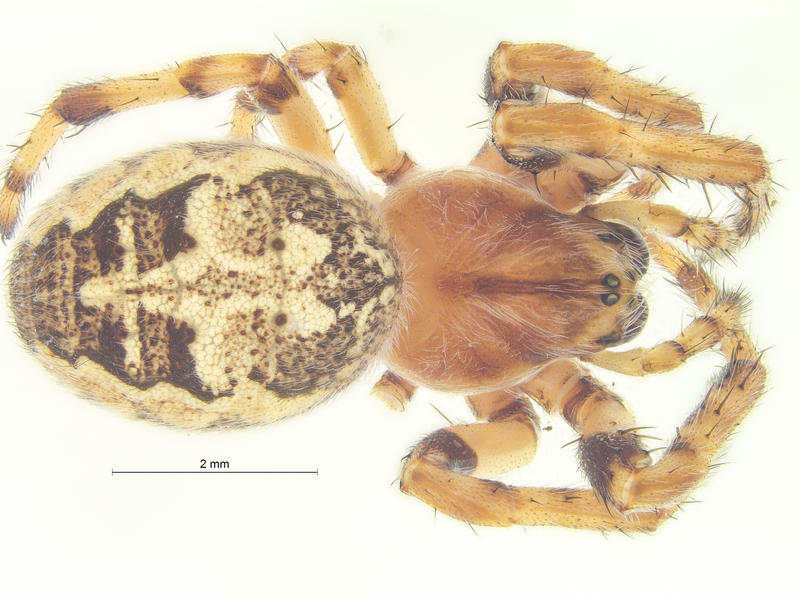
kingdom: Animalia
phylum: Arthropoda
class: Arachnida
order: Araneae
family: Araneidae
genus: Larinioides
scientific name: Larinioides cornutus
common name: Furrow orbweaver
